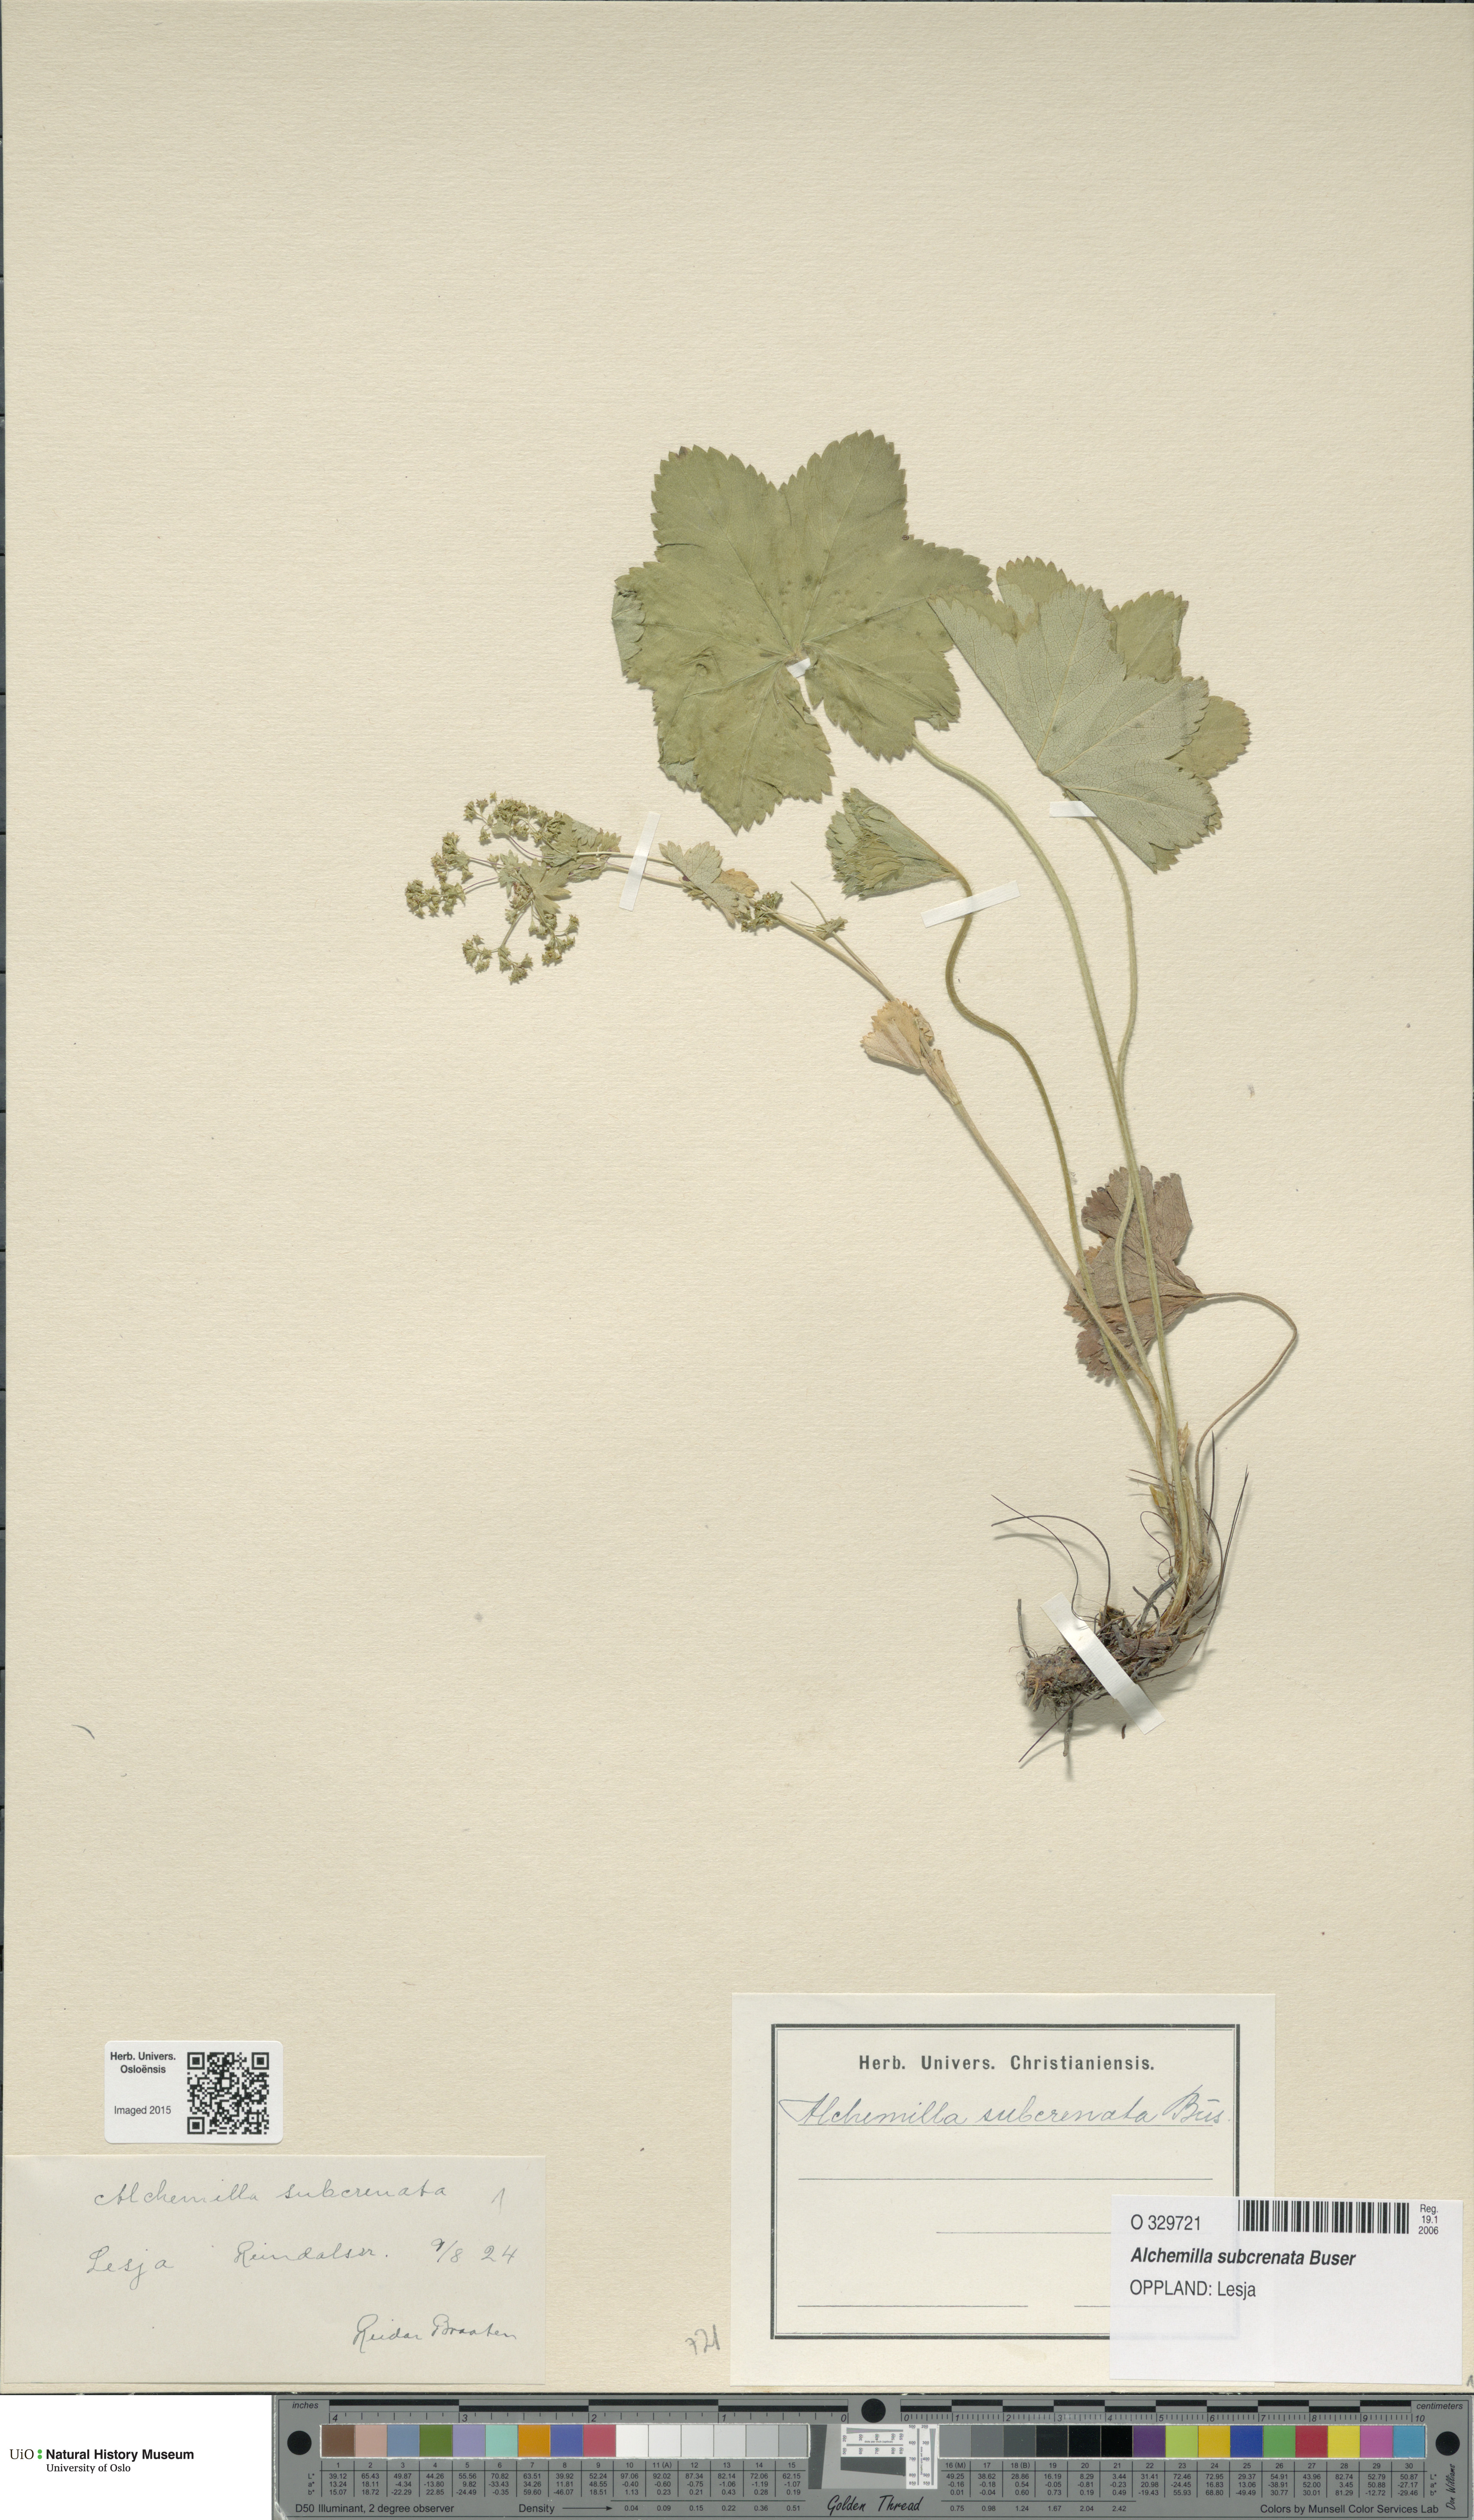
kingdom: Plantae
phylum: Tracheophyta
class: Magnoliopsida
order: Rosales
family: Rosaceae
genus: Alchemilla
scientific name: Alchemilla subcrenata
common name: Broadtooth lady's mantle
